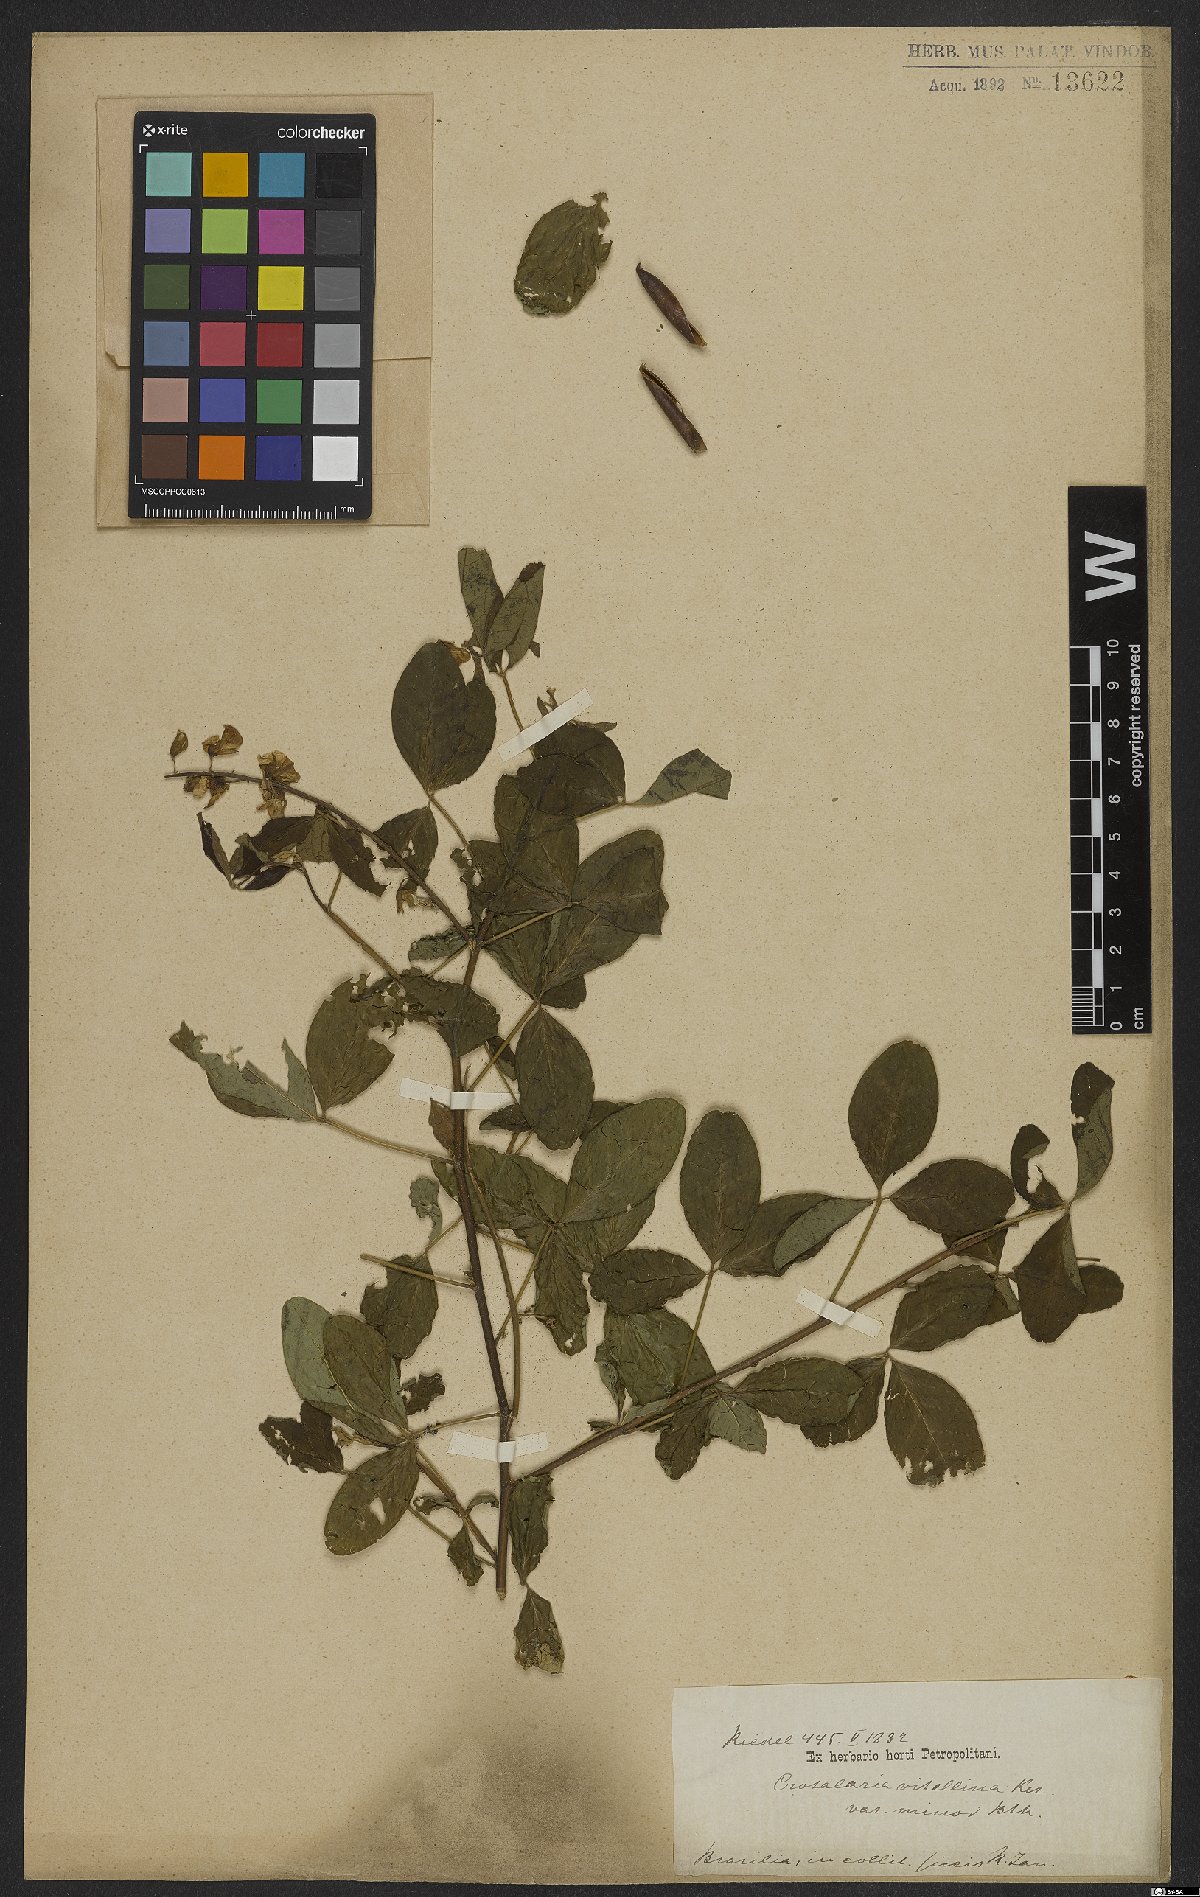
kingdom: Plantae
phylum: Tracheophyta
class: Magnoliopsida
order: Fabales
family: Fabaceae
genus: Crotalaria
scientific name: Crotalaria vitellina
